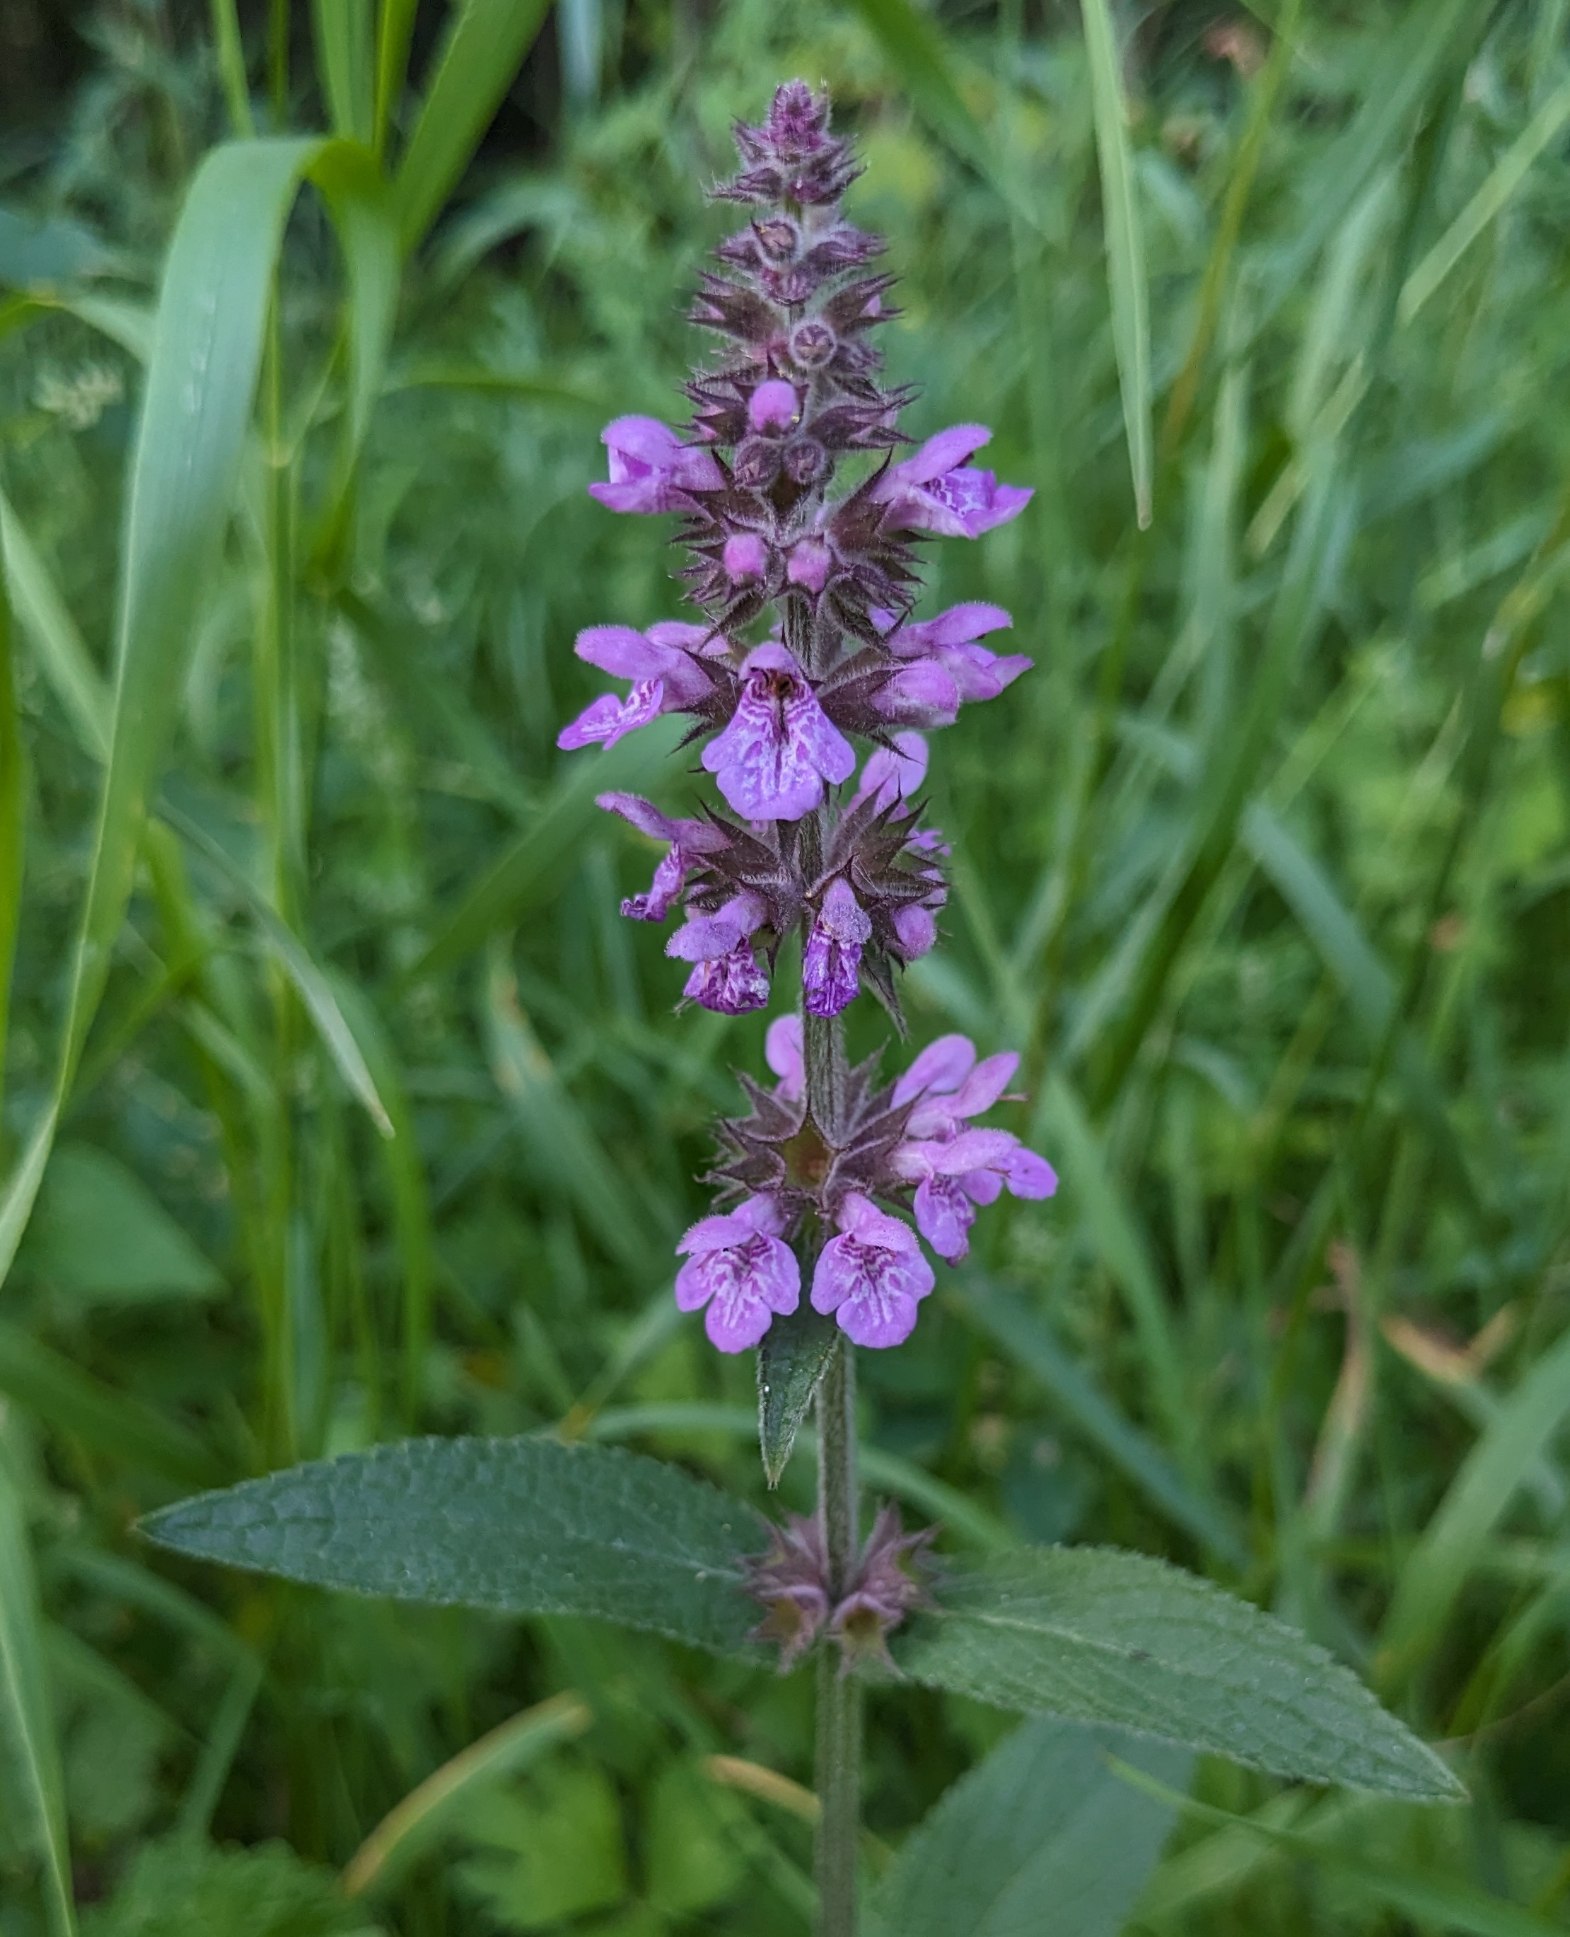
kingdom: Plantae
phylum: Tracheophyta
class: Magnoliopsida
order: Lamiales
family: Lamiaceae
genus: Stachys
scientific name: Stachys palustris
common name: Kær-galtetand
